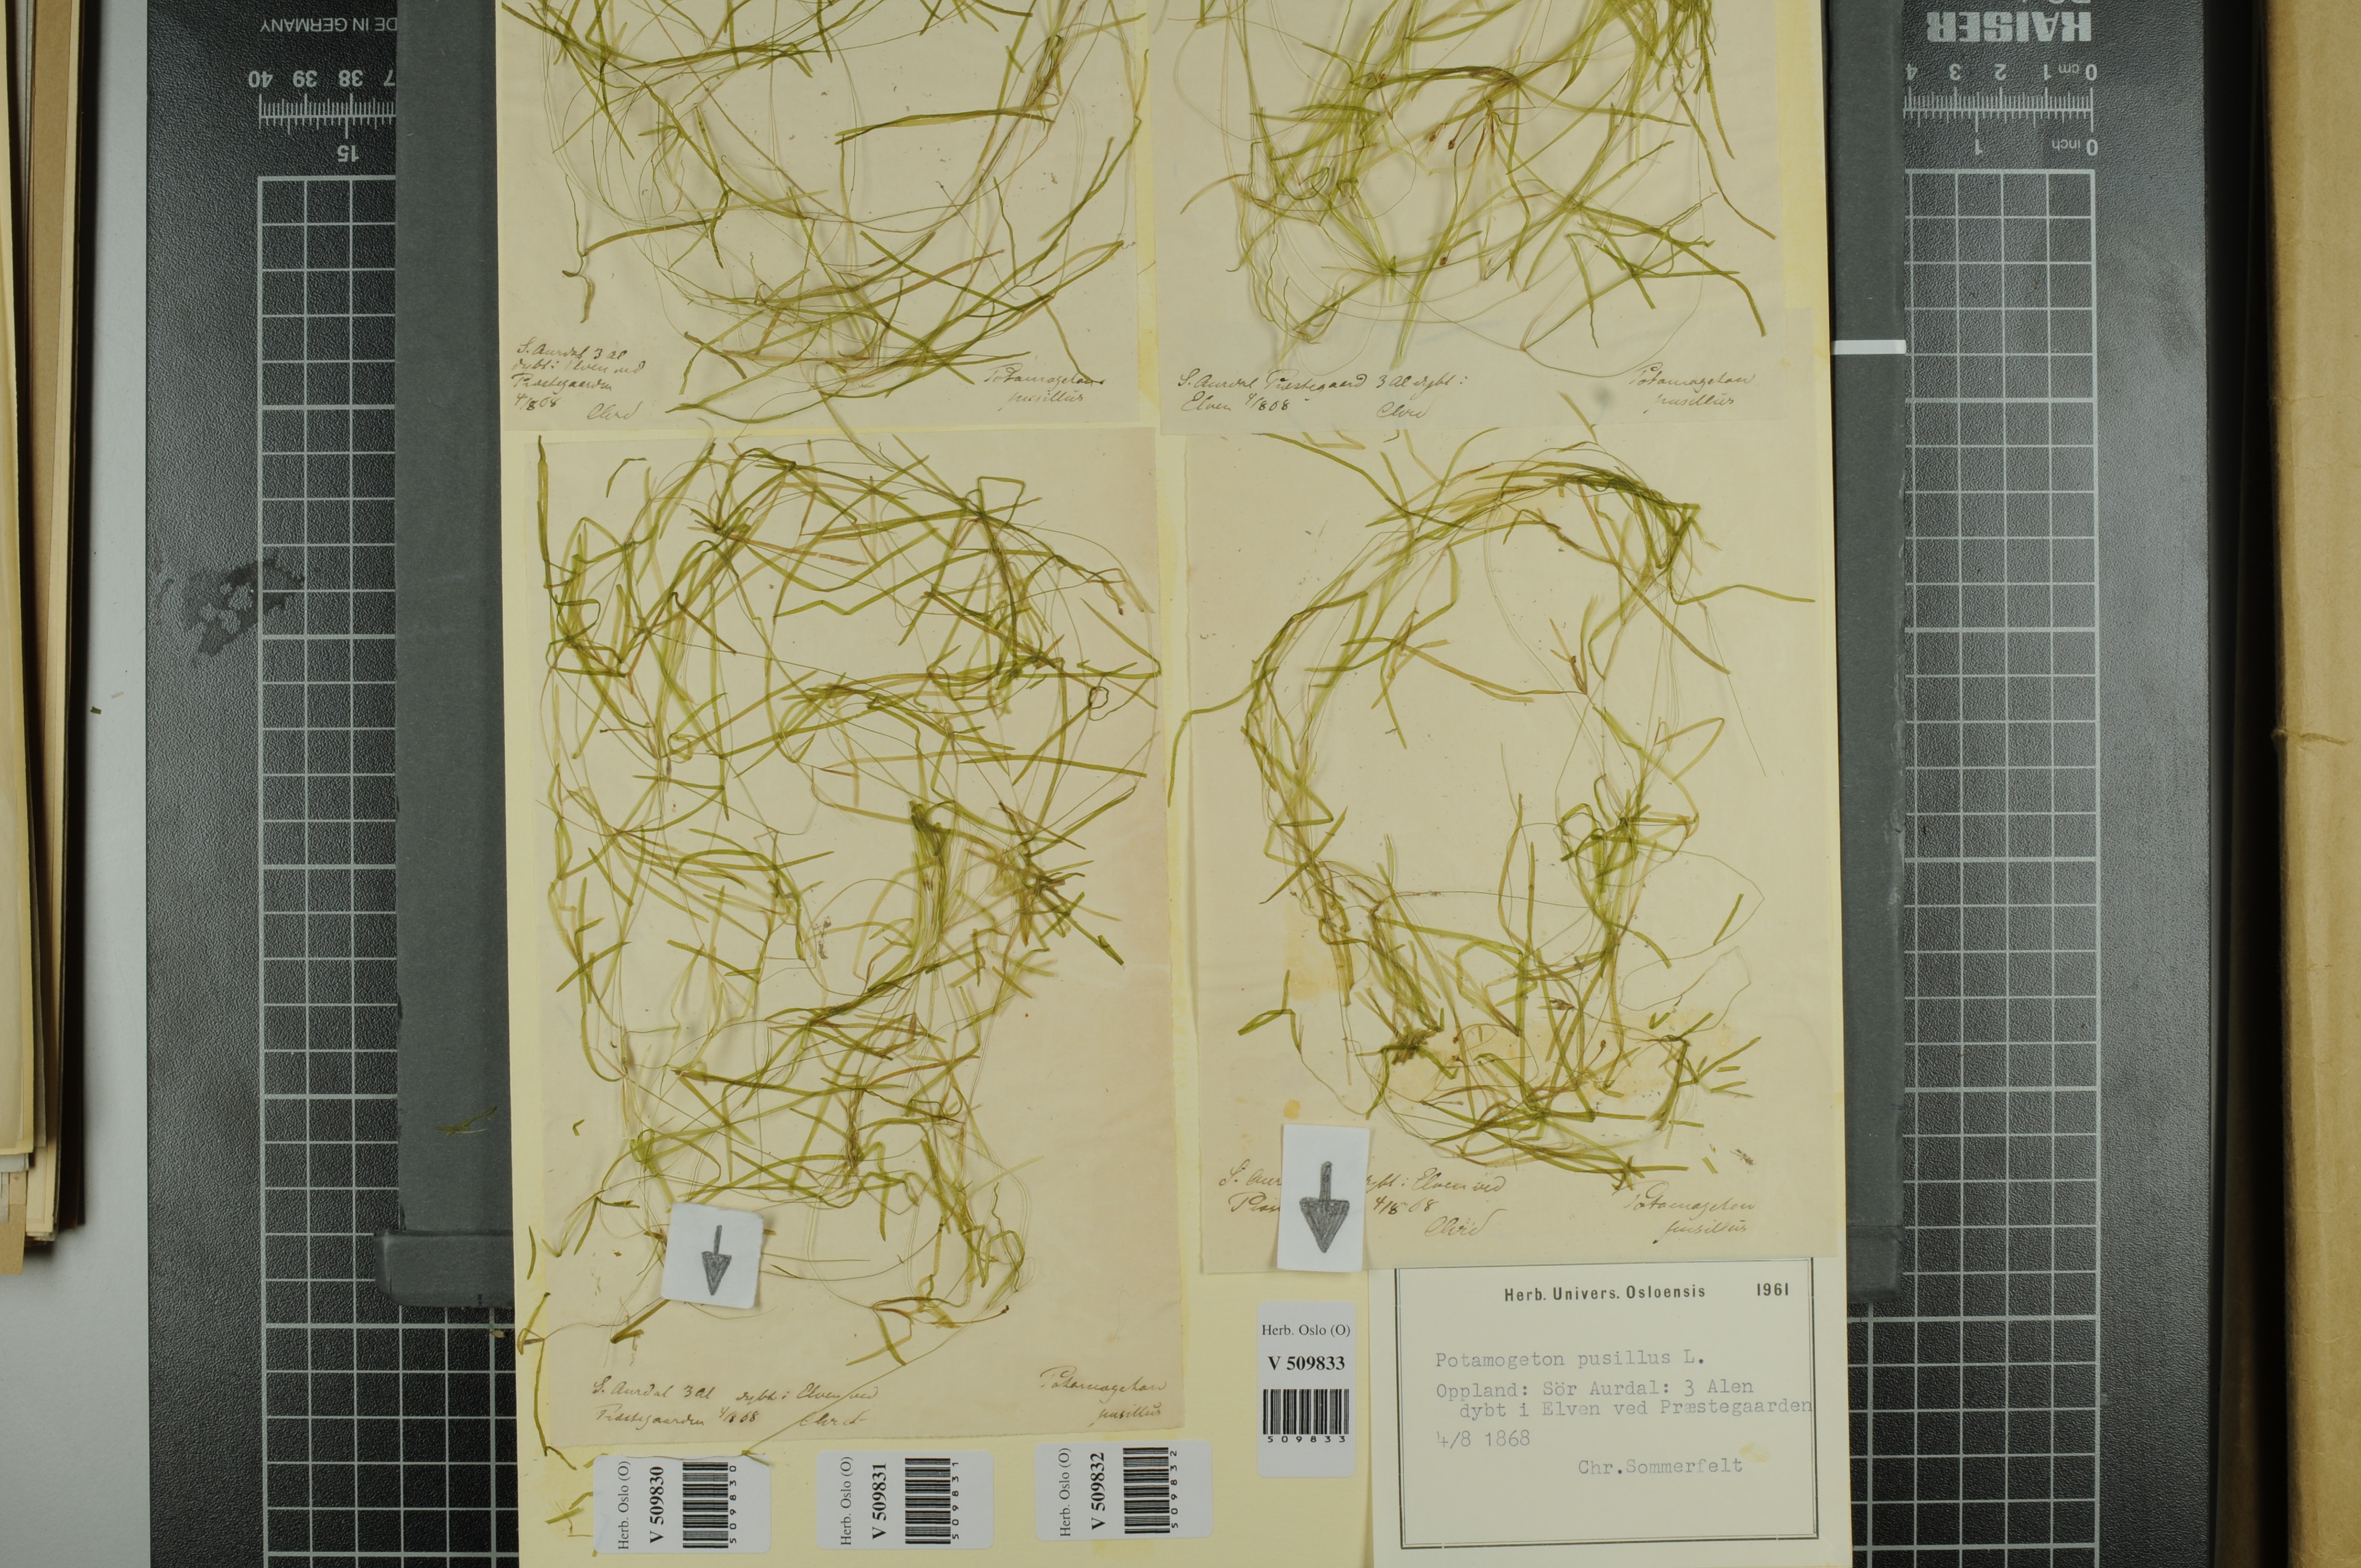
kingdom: Plantae
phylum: Tracheophyta
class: Liliopsida
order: Alismatales
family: Potamogetonaceae
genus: Potamogeton
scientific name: Potamogeton berchtoldii
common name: Small pondweed
